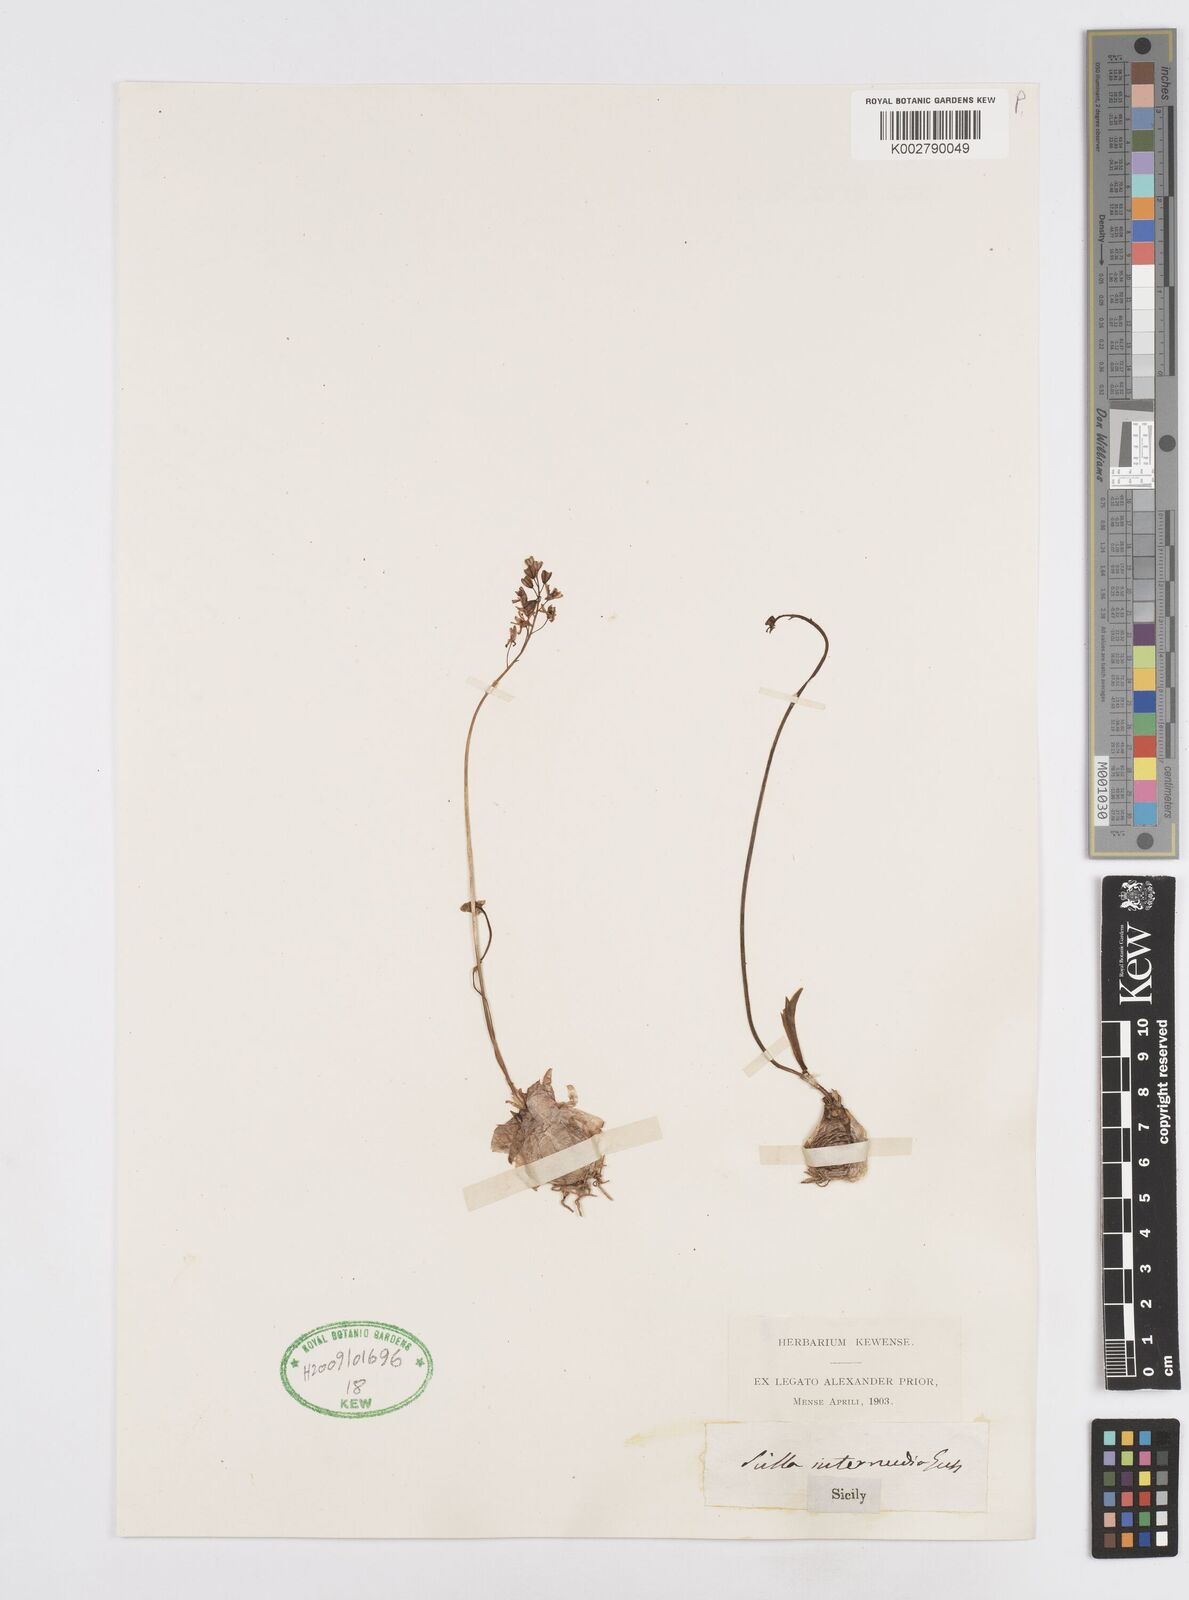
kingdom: Plantae
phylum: Tracheophyta
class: Liliopsida
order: Asparagales
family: Asparagaceae
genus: Prospero
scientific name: Prospero obtusifolium
